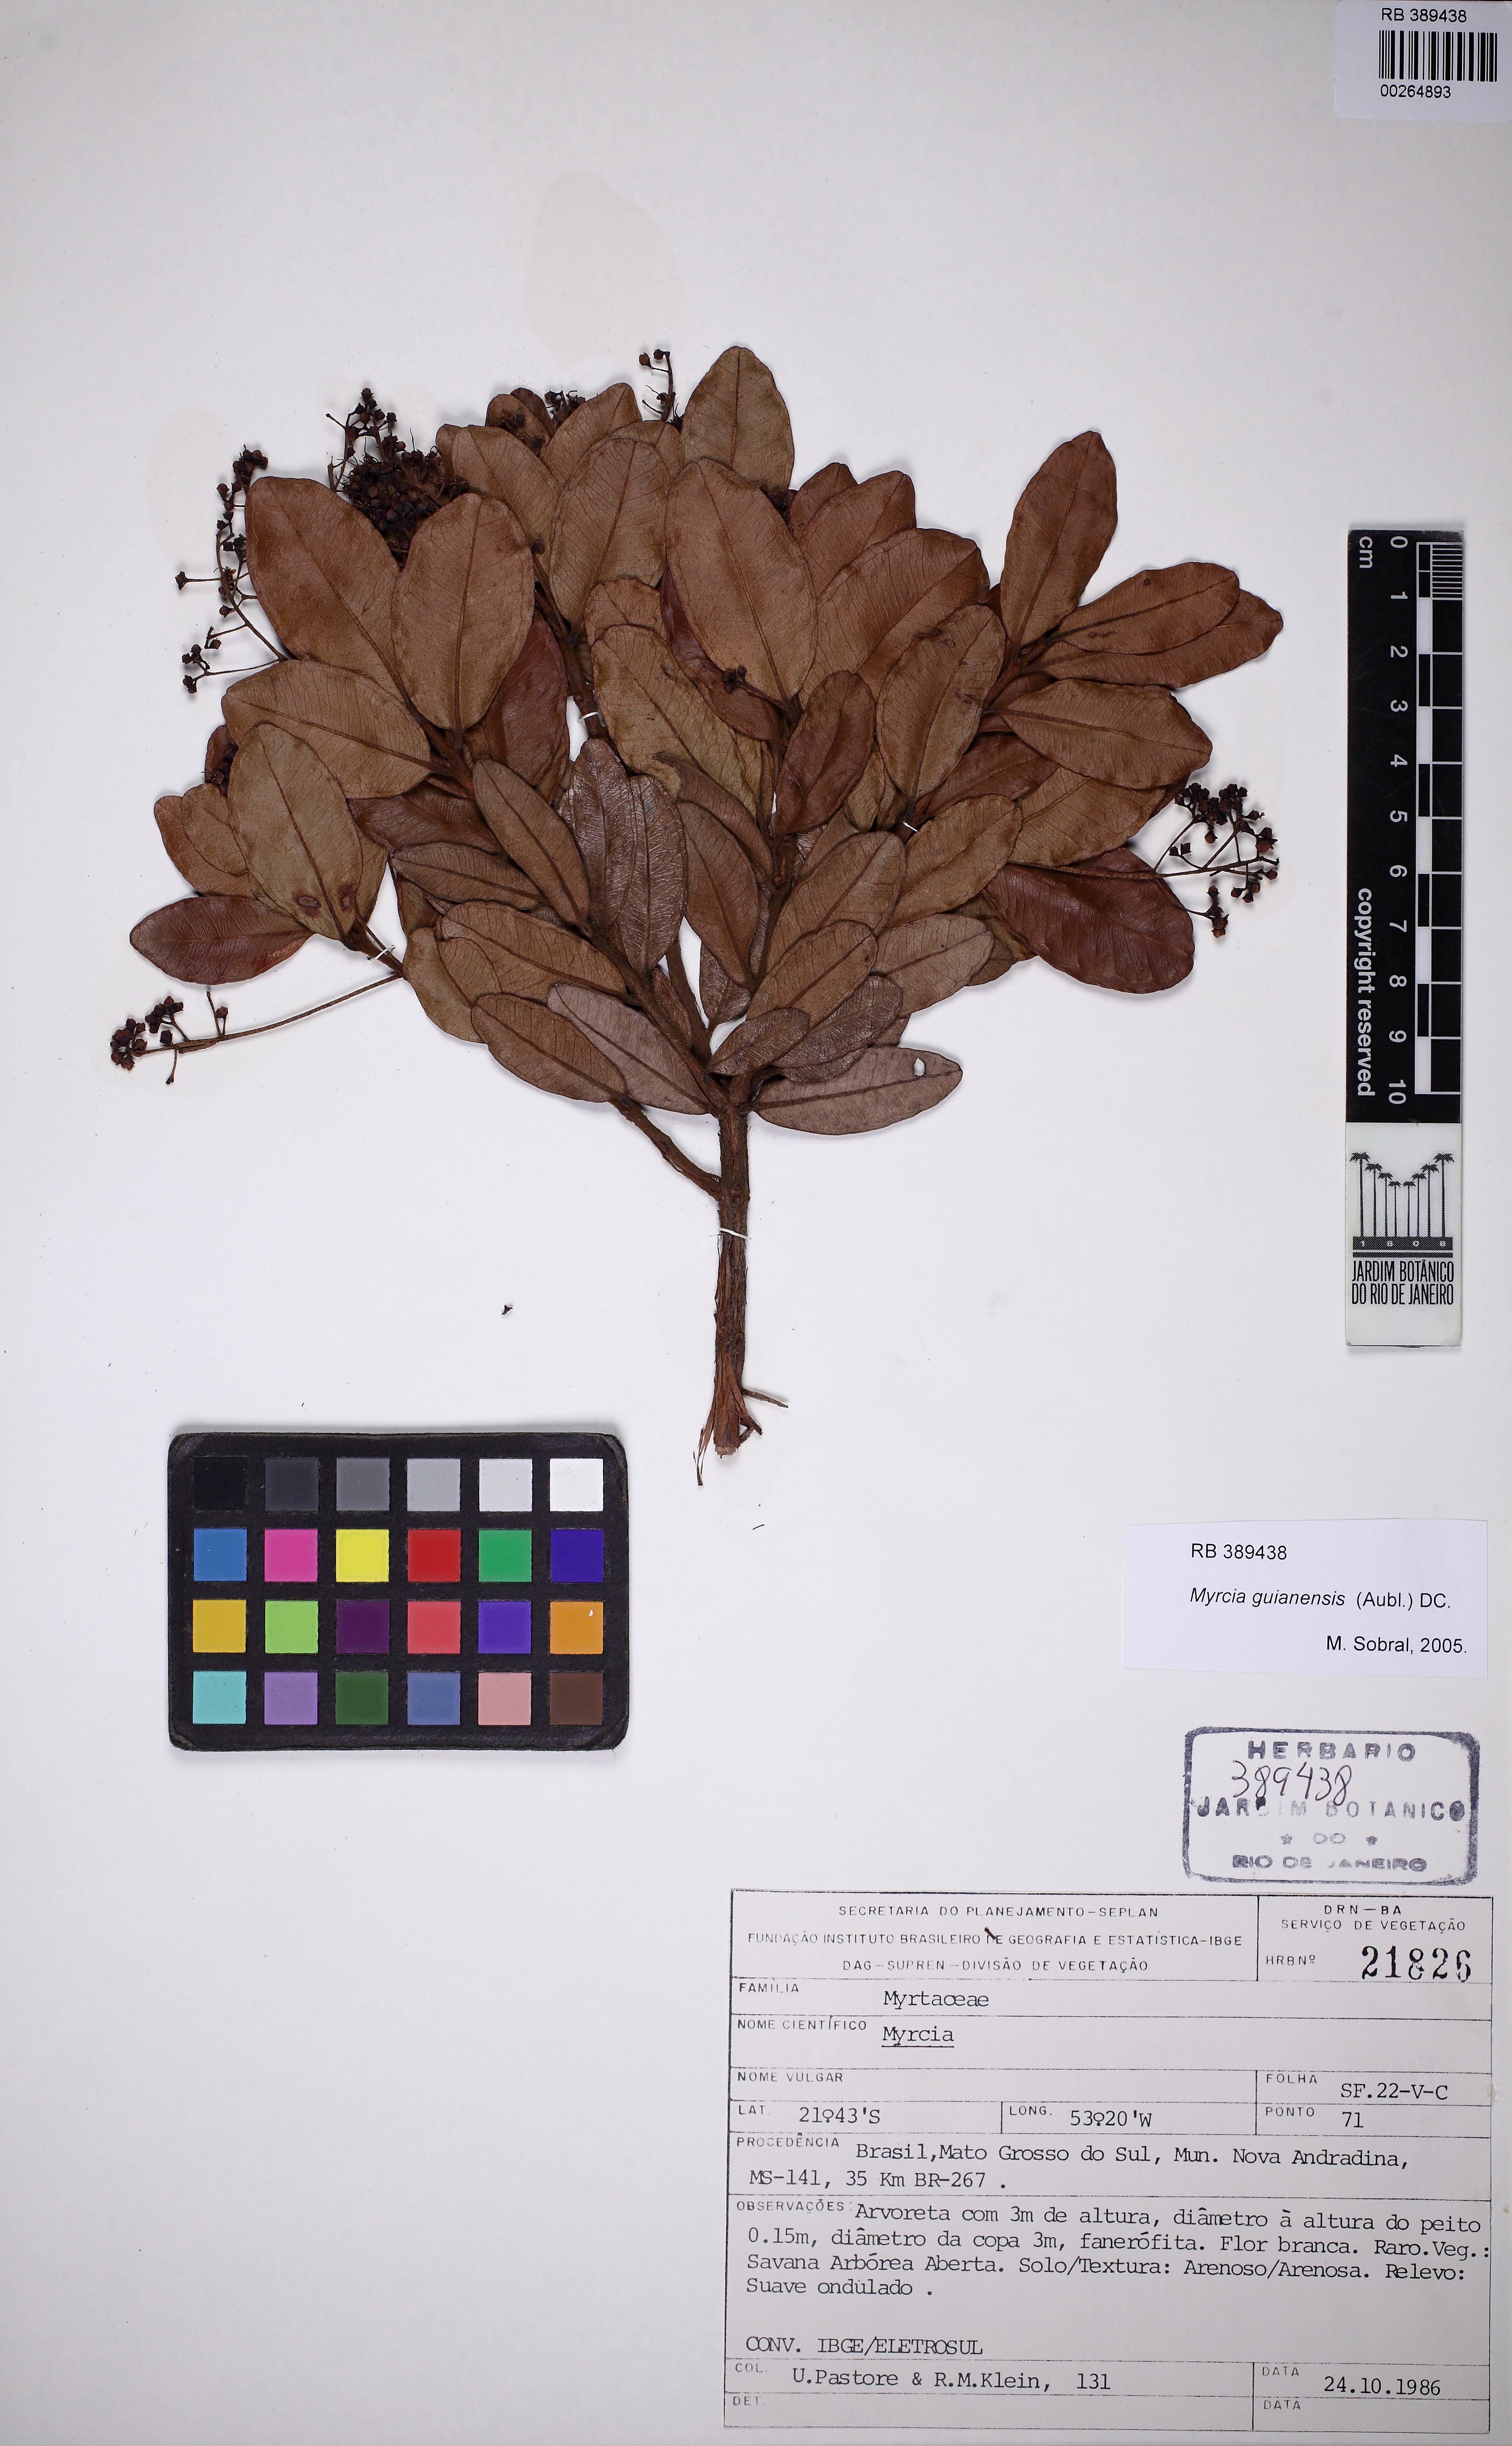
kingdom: Plantae
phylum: Tracheophyta
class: Magnoliopsida
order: Myrtales
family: Myrtaceae
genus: Myrcia
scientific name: Myrcia guianensis
